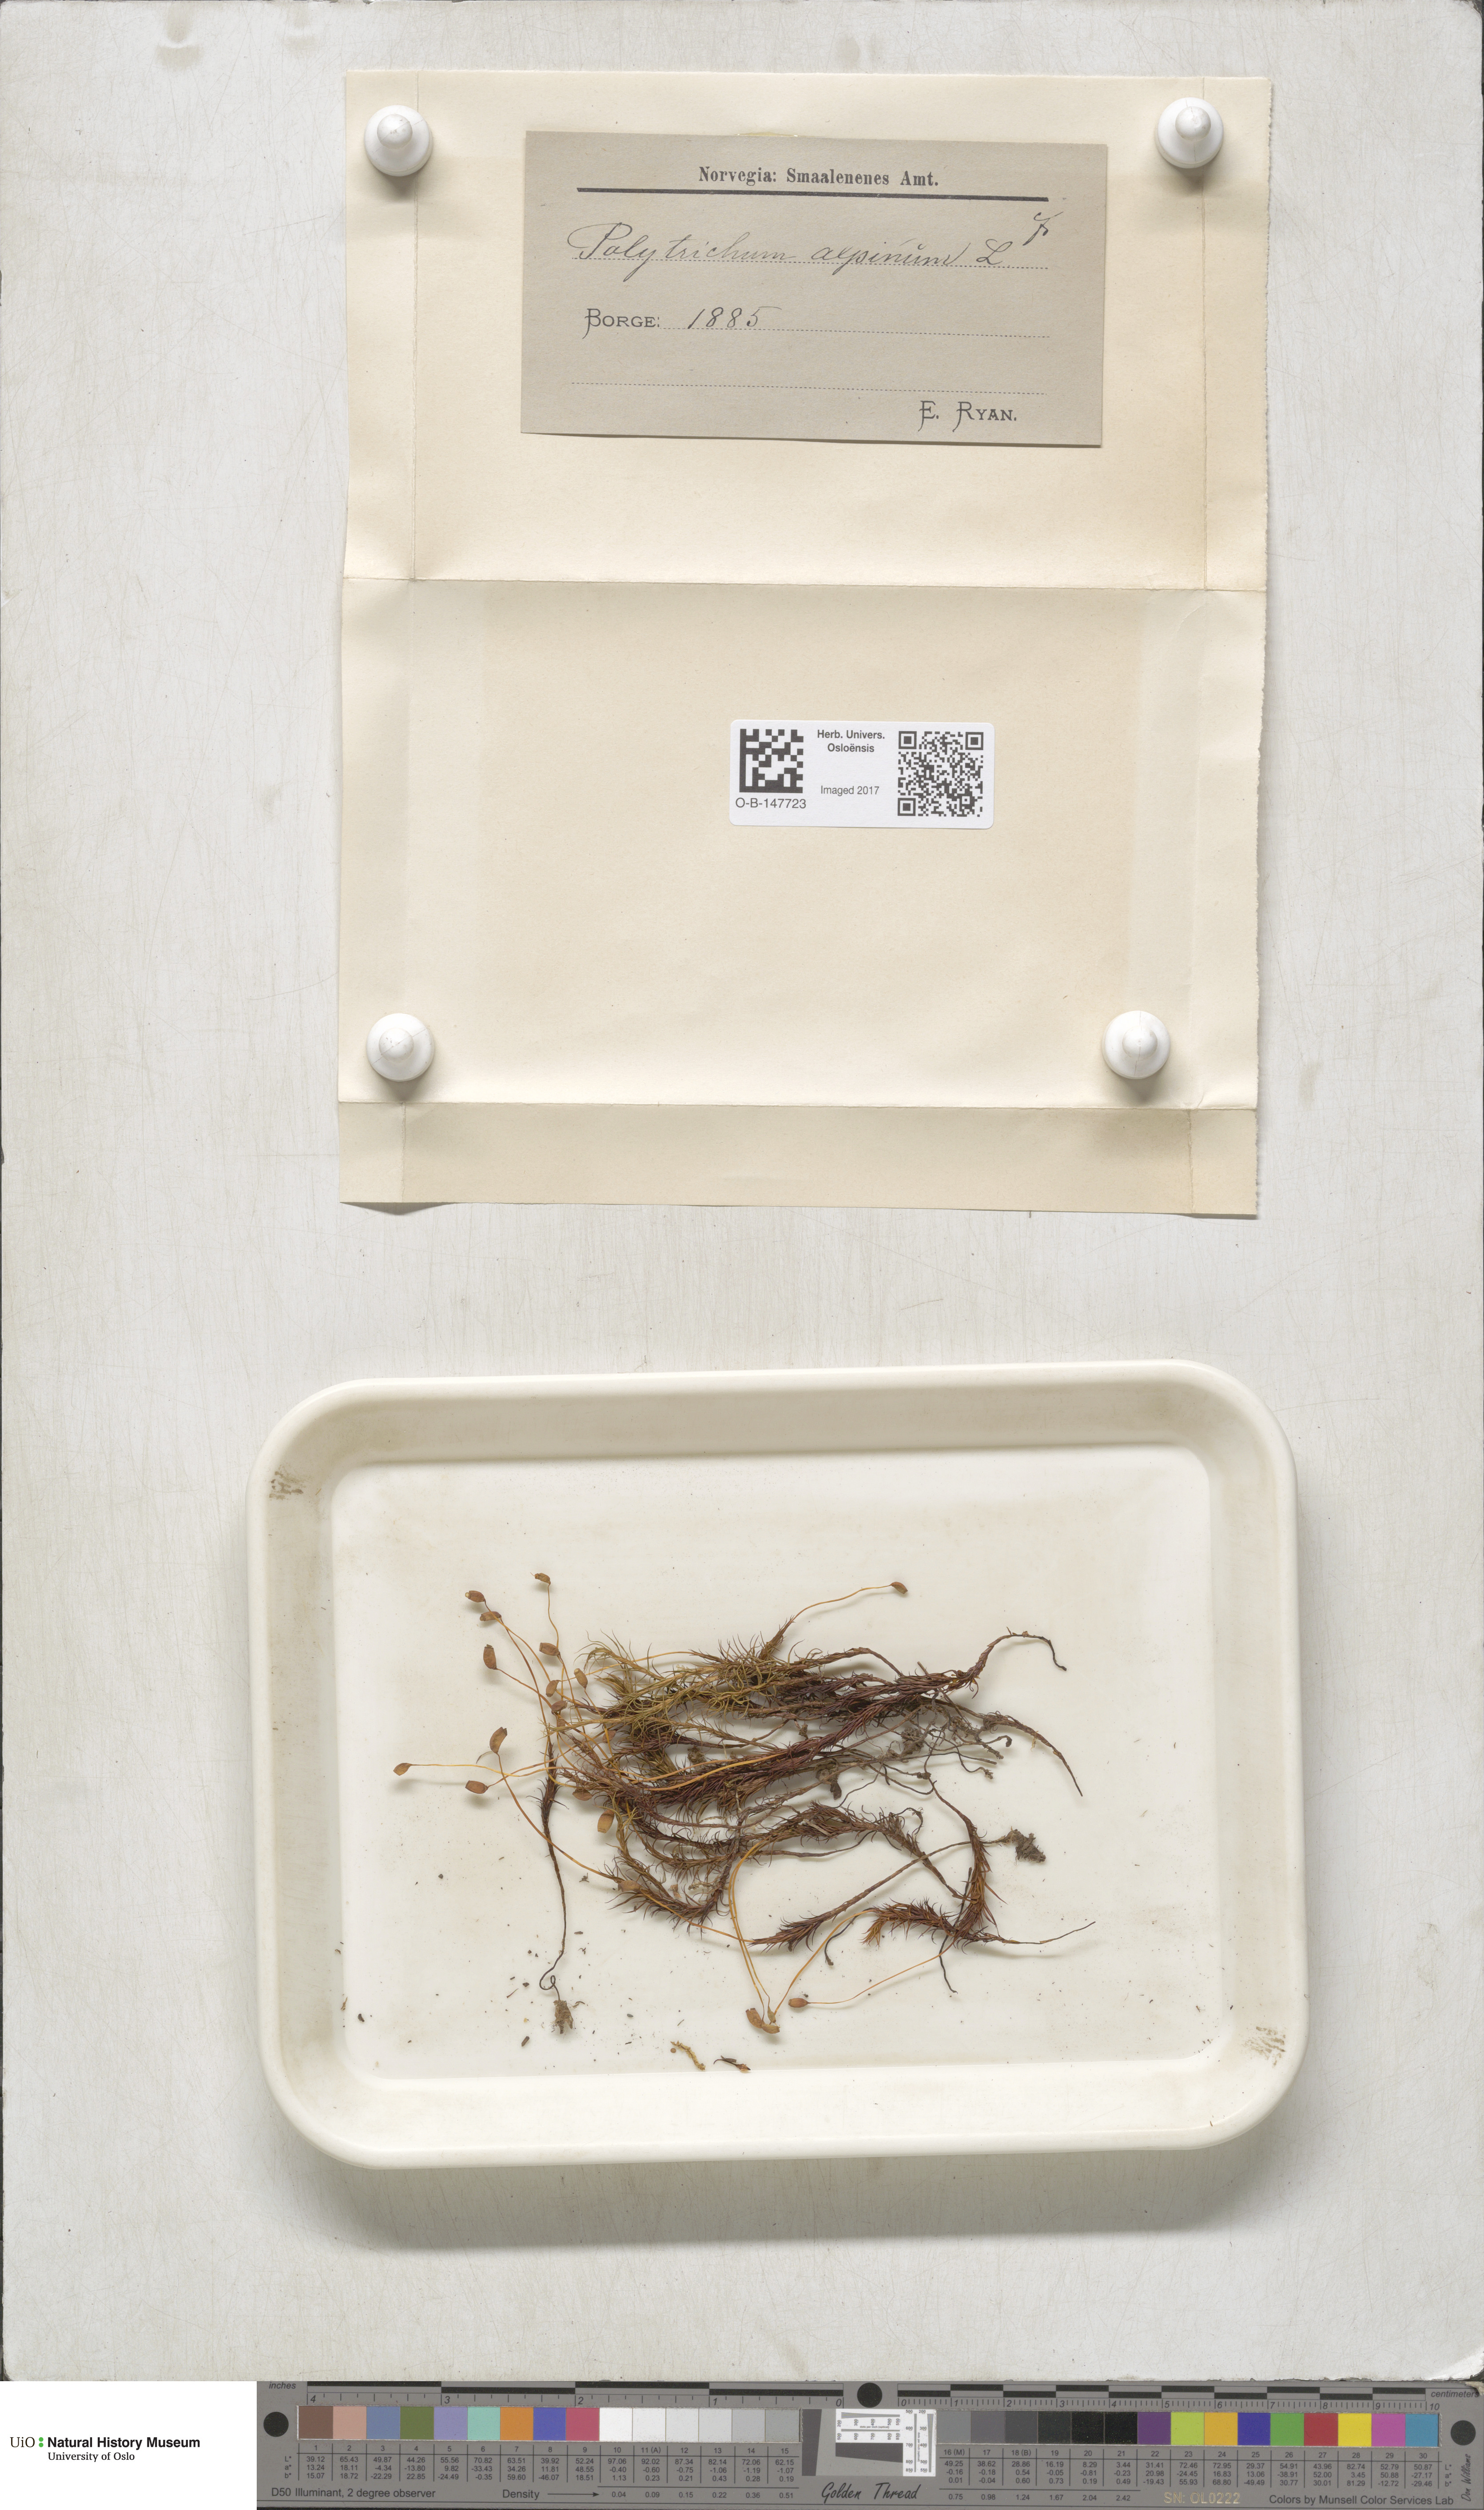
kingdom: Plantae
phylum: Bryophyta
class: Polytrichopsida
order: Polytrichales
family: Polytrichaceae
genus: Polytrichastrum
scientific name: Polytrichastrum alpinum
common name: Alpine haircap
